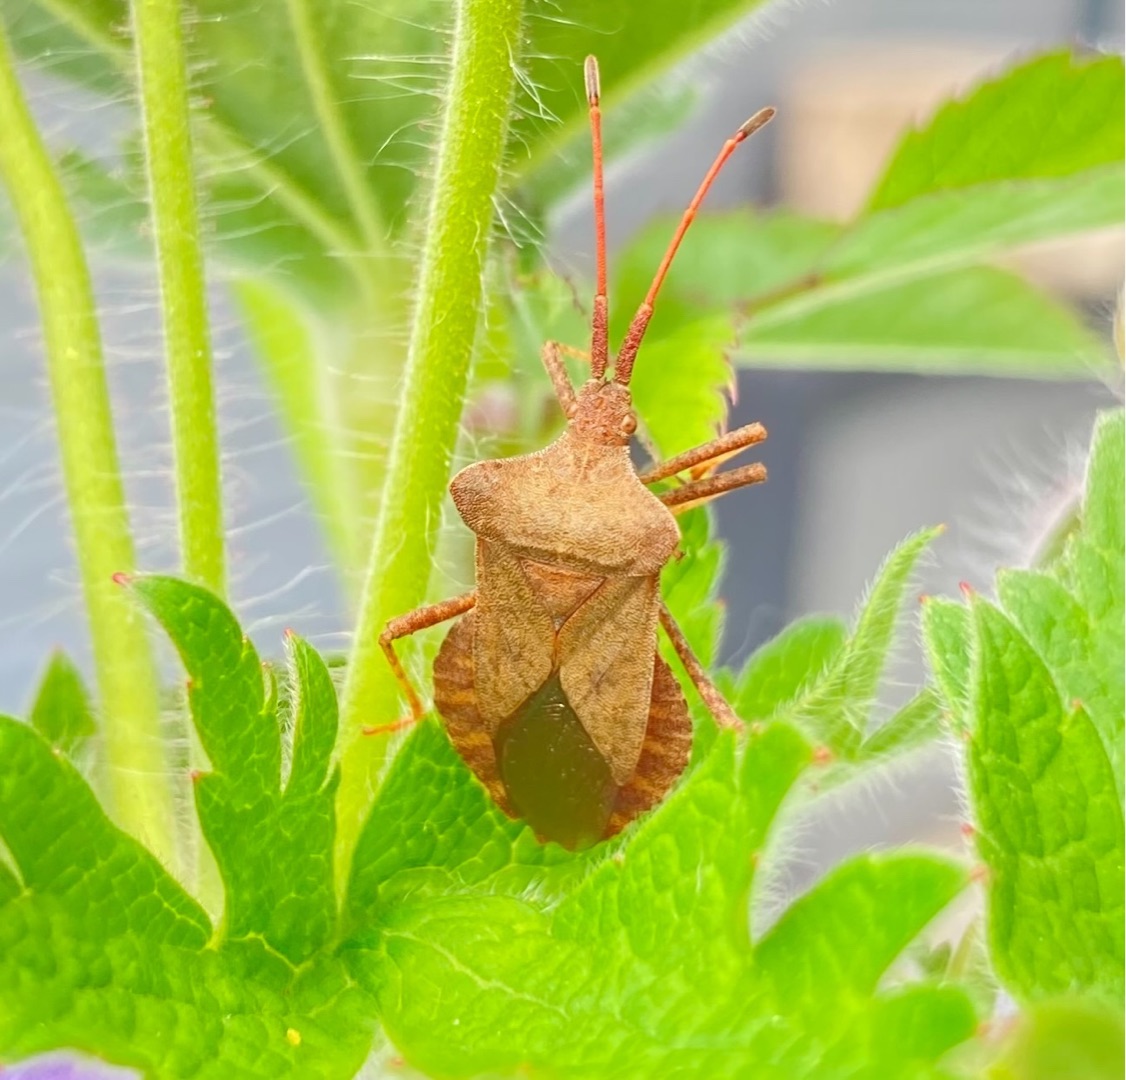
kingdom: Animalia
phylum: Arthropoda
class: Insecta
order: Hemiptera
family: Coreidae
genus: Coreus
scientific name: Coreus marginatus
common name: Skræppetæge
